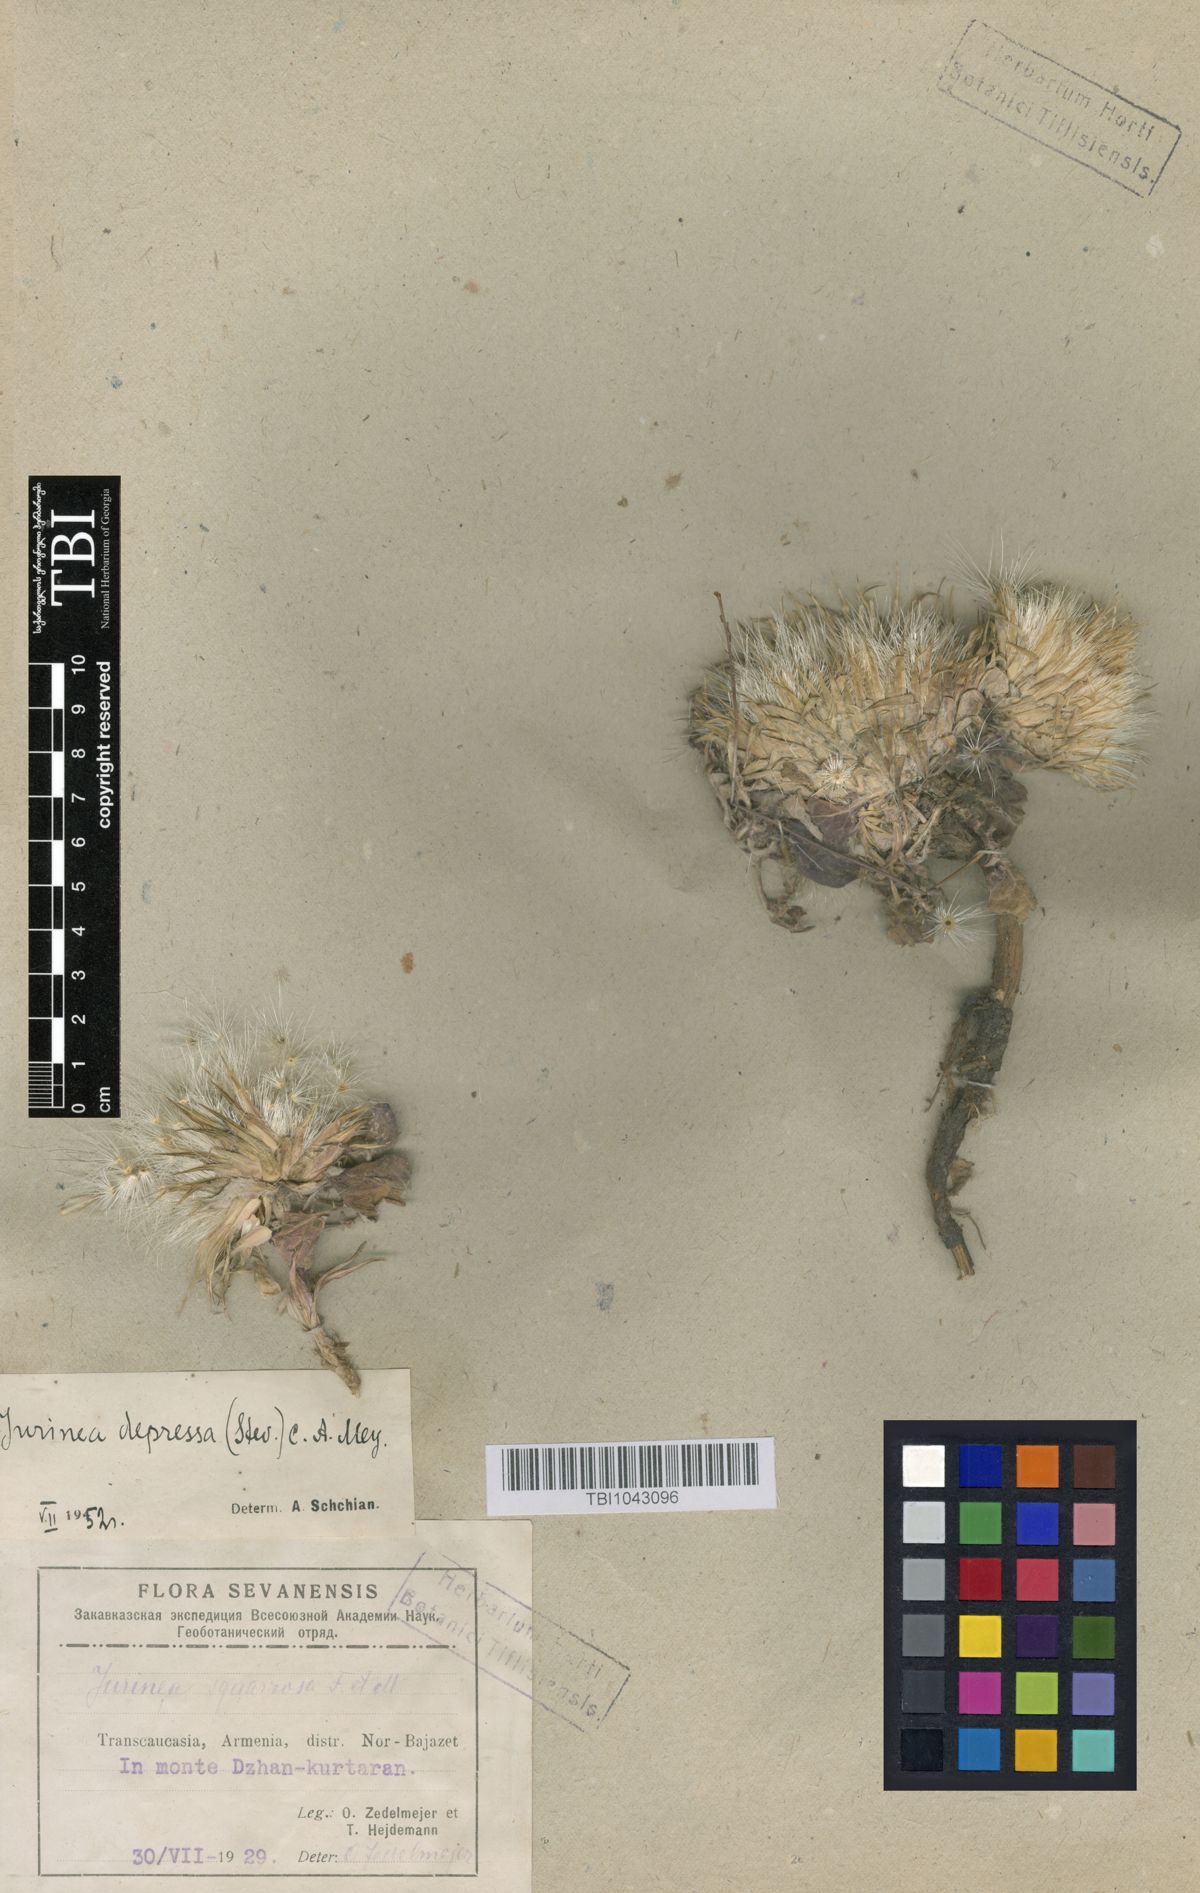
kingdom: Plantae
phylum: Tracheophyta
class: Magnoliopsida
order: Asterales
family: Asteraceae
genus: Jurinea
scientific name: Jurinea moschus
